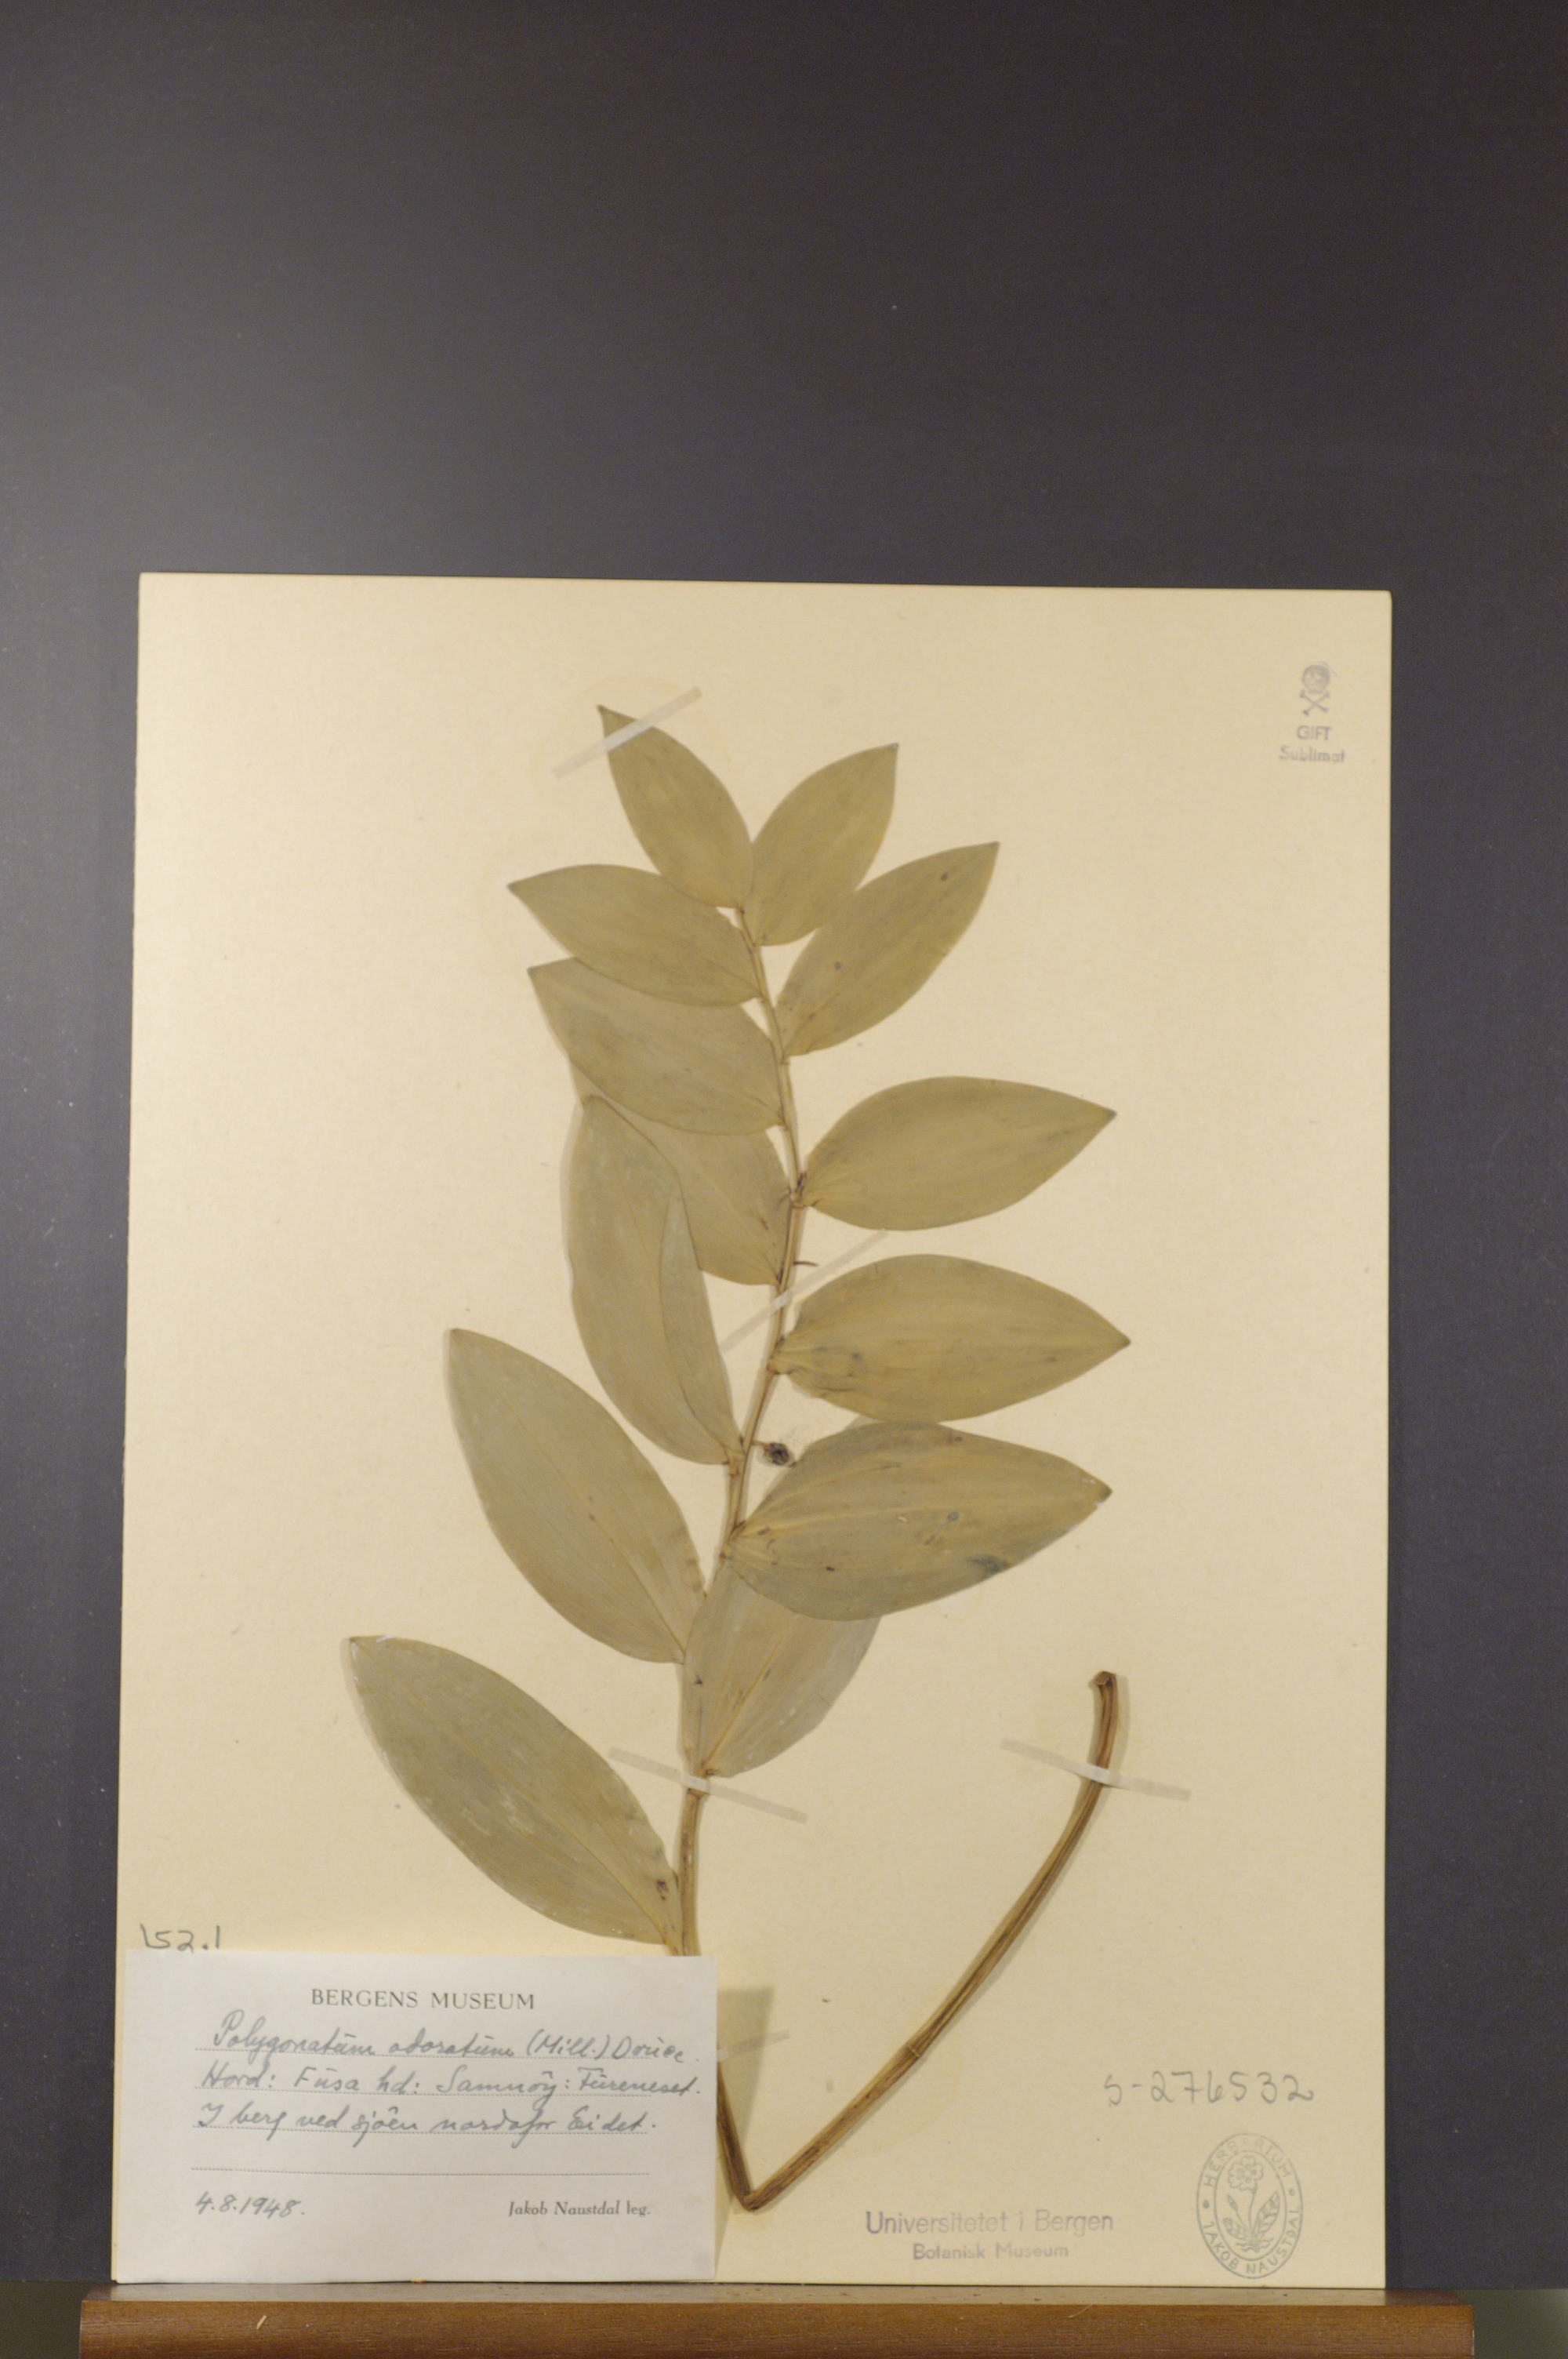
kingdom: Plantae
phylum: Tracheophyta
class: Liliopsida
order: Asparagales
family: Asparagaceae
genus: Polygonatum
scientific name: Polygonatum odoratum
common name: Angular solomon's-seal
